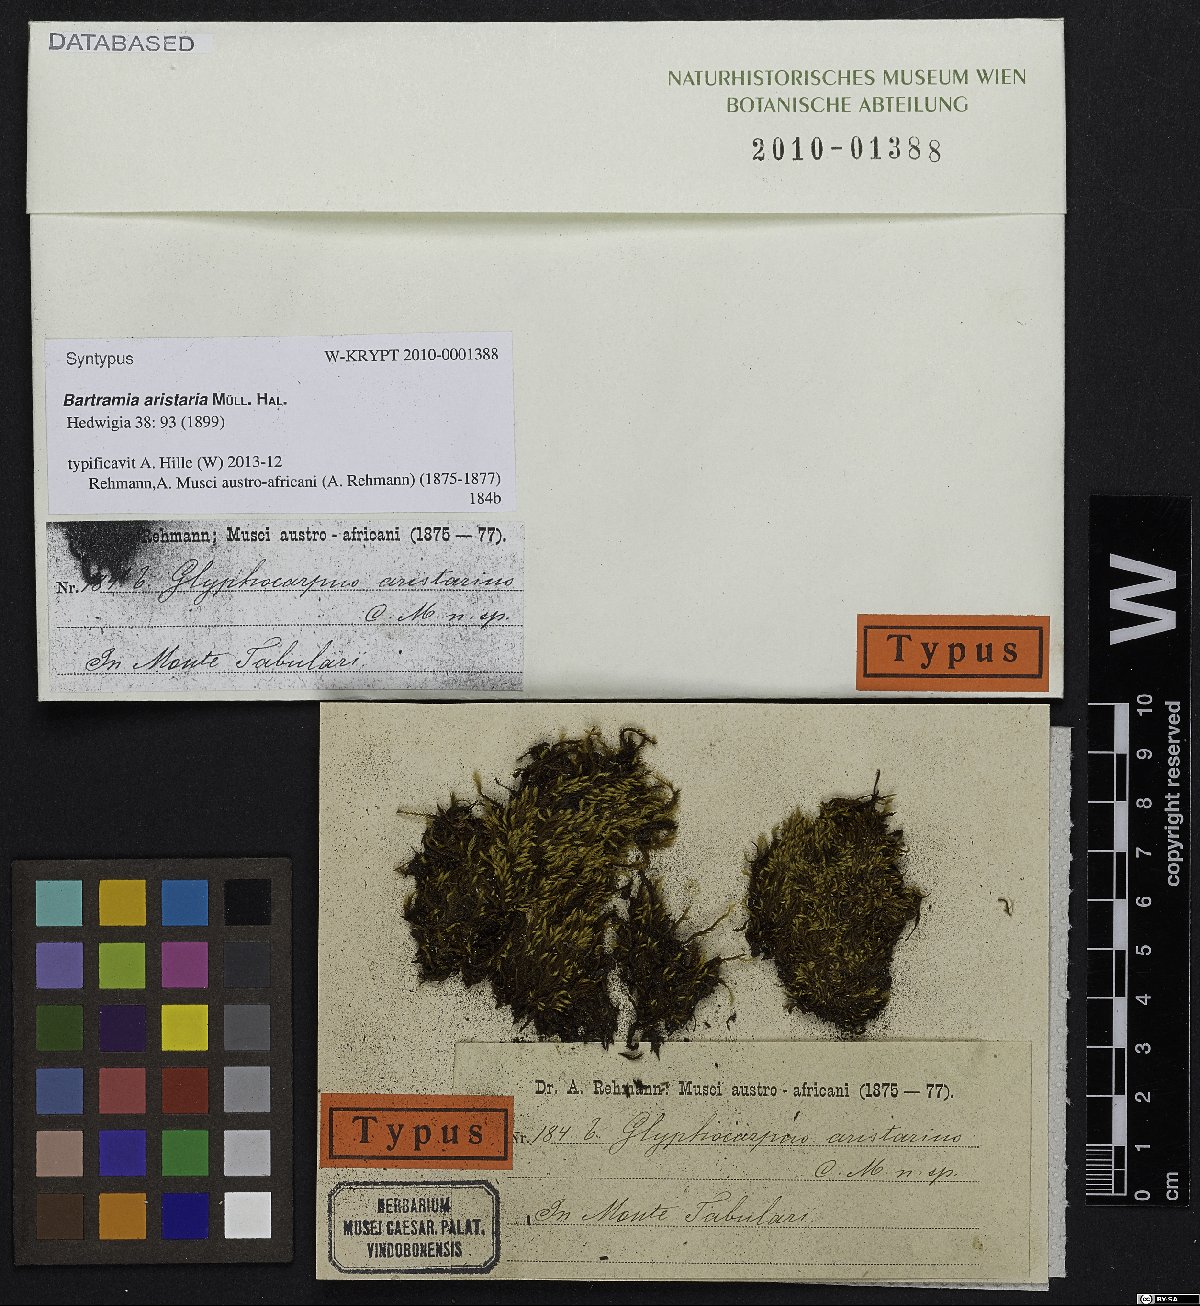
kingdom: Plantae
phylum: Bryophyta
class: Bryopsida
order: Bartramiales
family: Bartramiaceae
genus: Bartramia
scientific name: Bartramia aristaria
